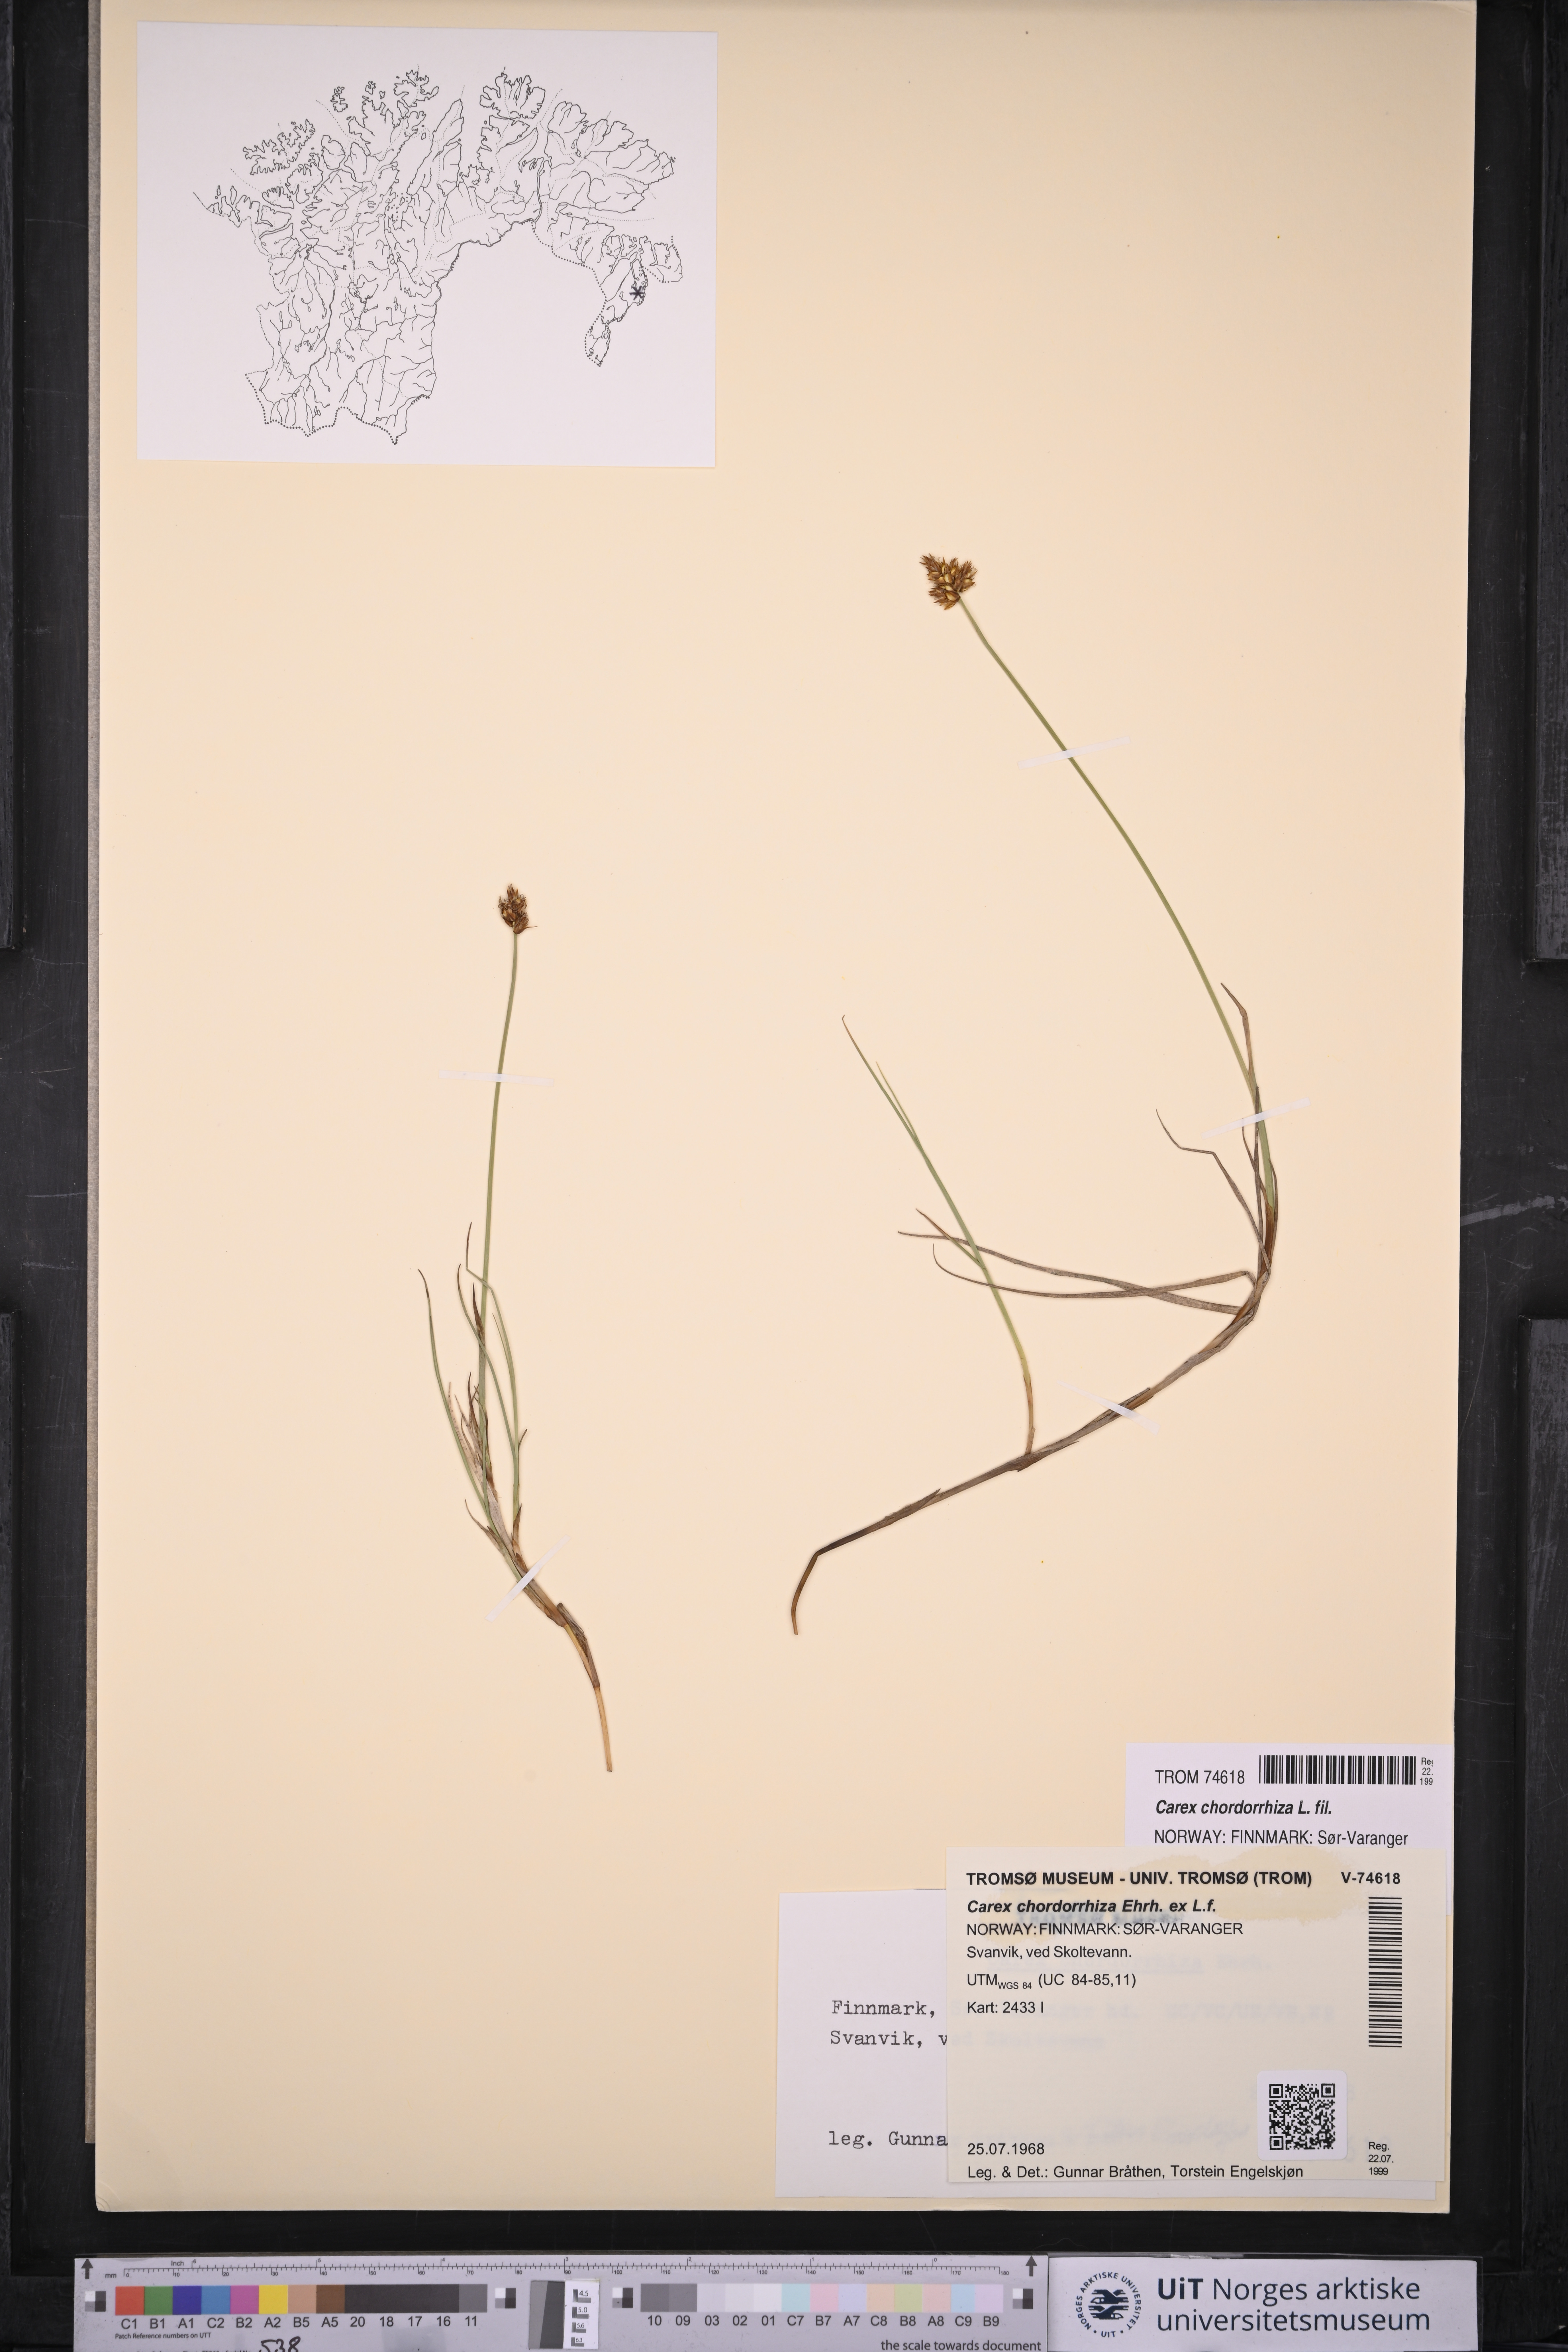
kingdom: Plantae
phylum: Tracheophyta
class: Liliopsida
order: Poales
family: Cyperaceae
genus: Carex
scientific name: Carex chordorrhiza
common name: String sedge
